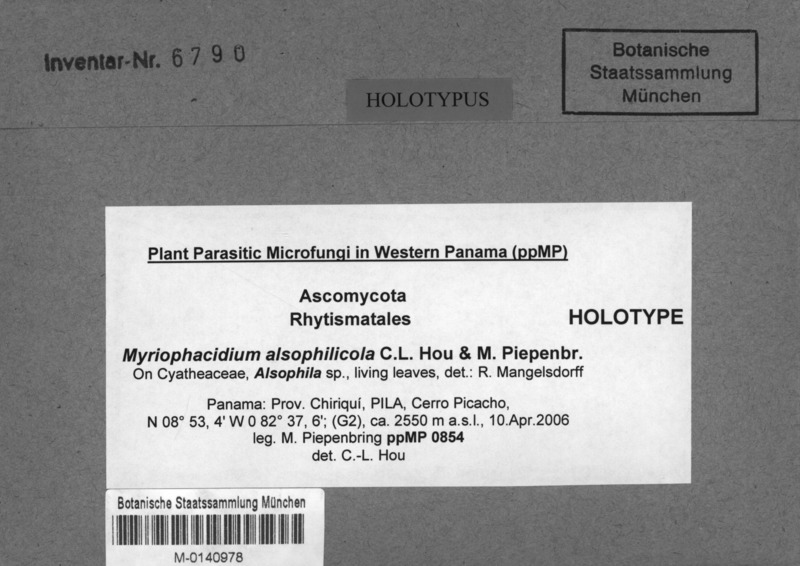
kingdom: Fungi
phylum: Ascomycota
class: Leotiomycetes
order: Rhytismatales
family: Rhytismataceae
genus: Myriophacidium
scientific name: Myriophacidium alsophilicola
